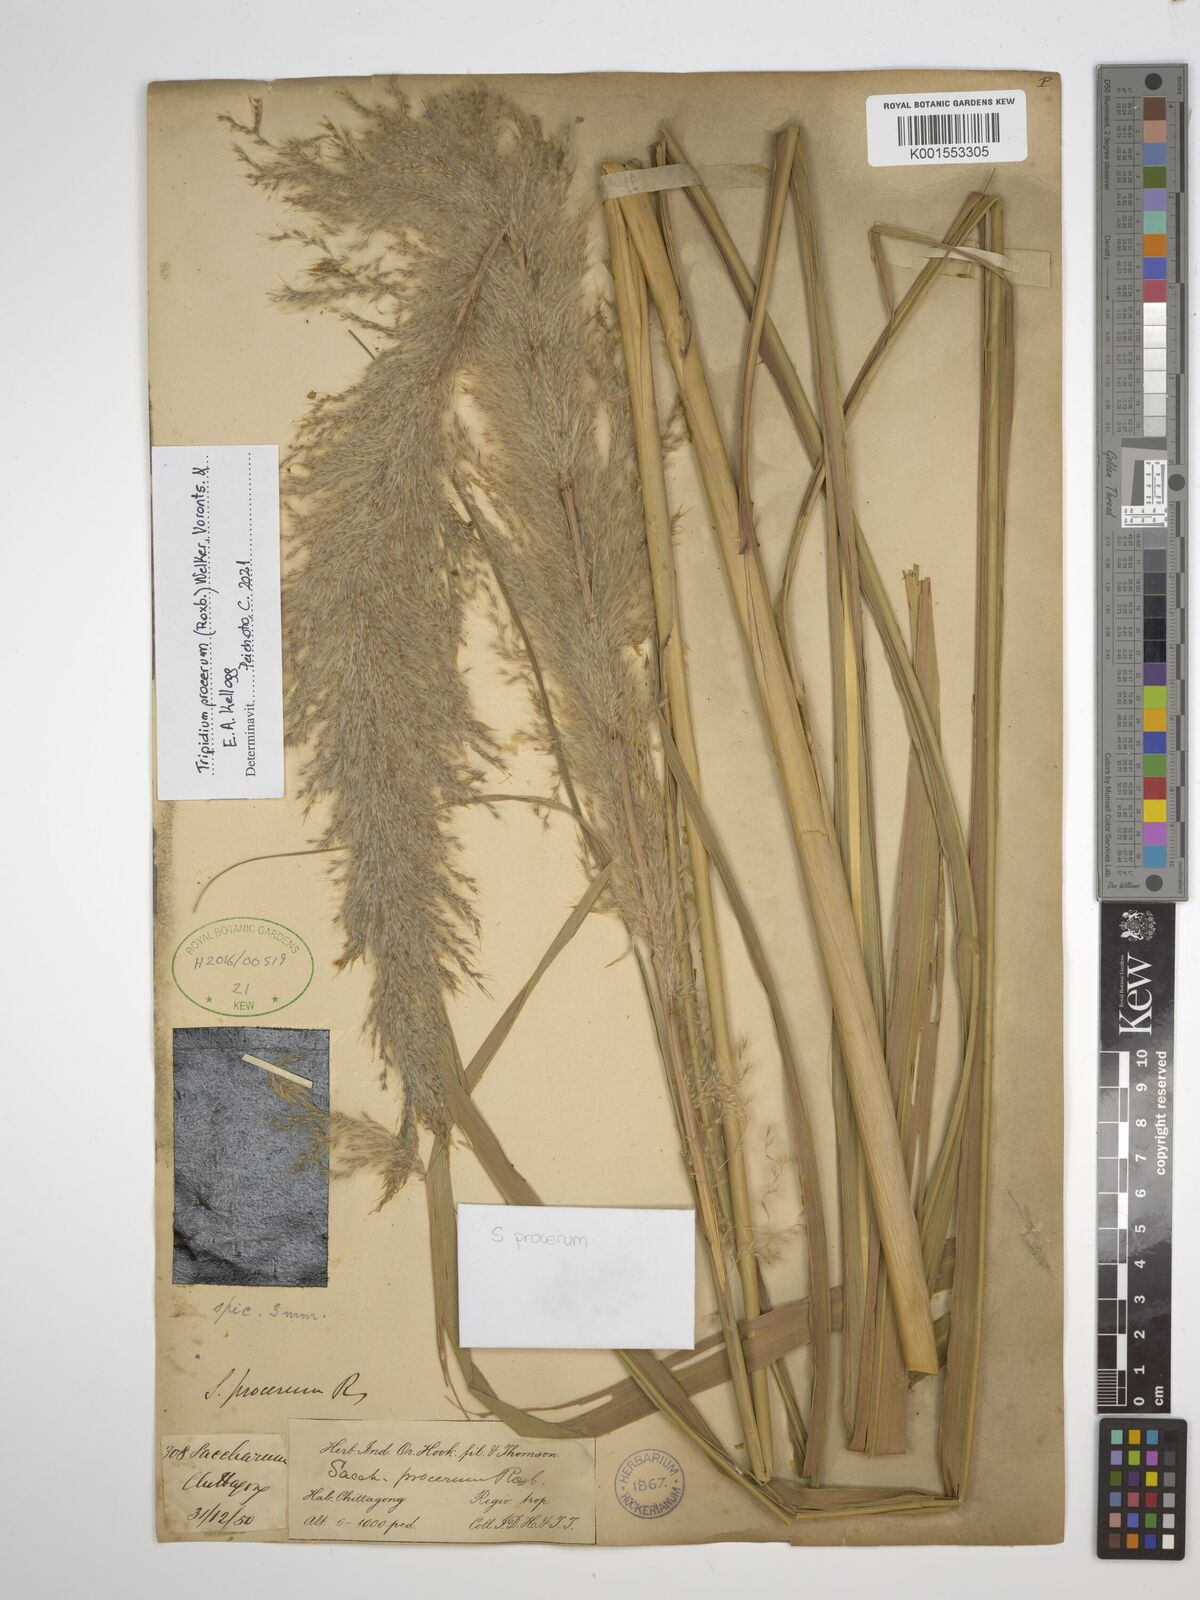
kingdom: Plantae
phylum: Tracheophyta
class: Liliopsida
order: Poales
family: Poaceae
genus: Tripidium
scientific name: Tripidium procerum
